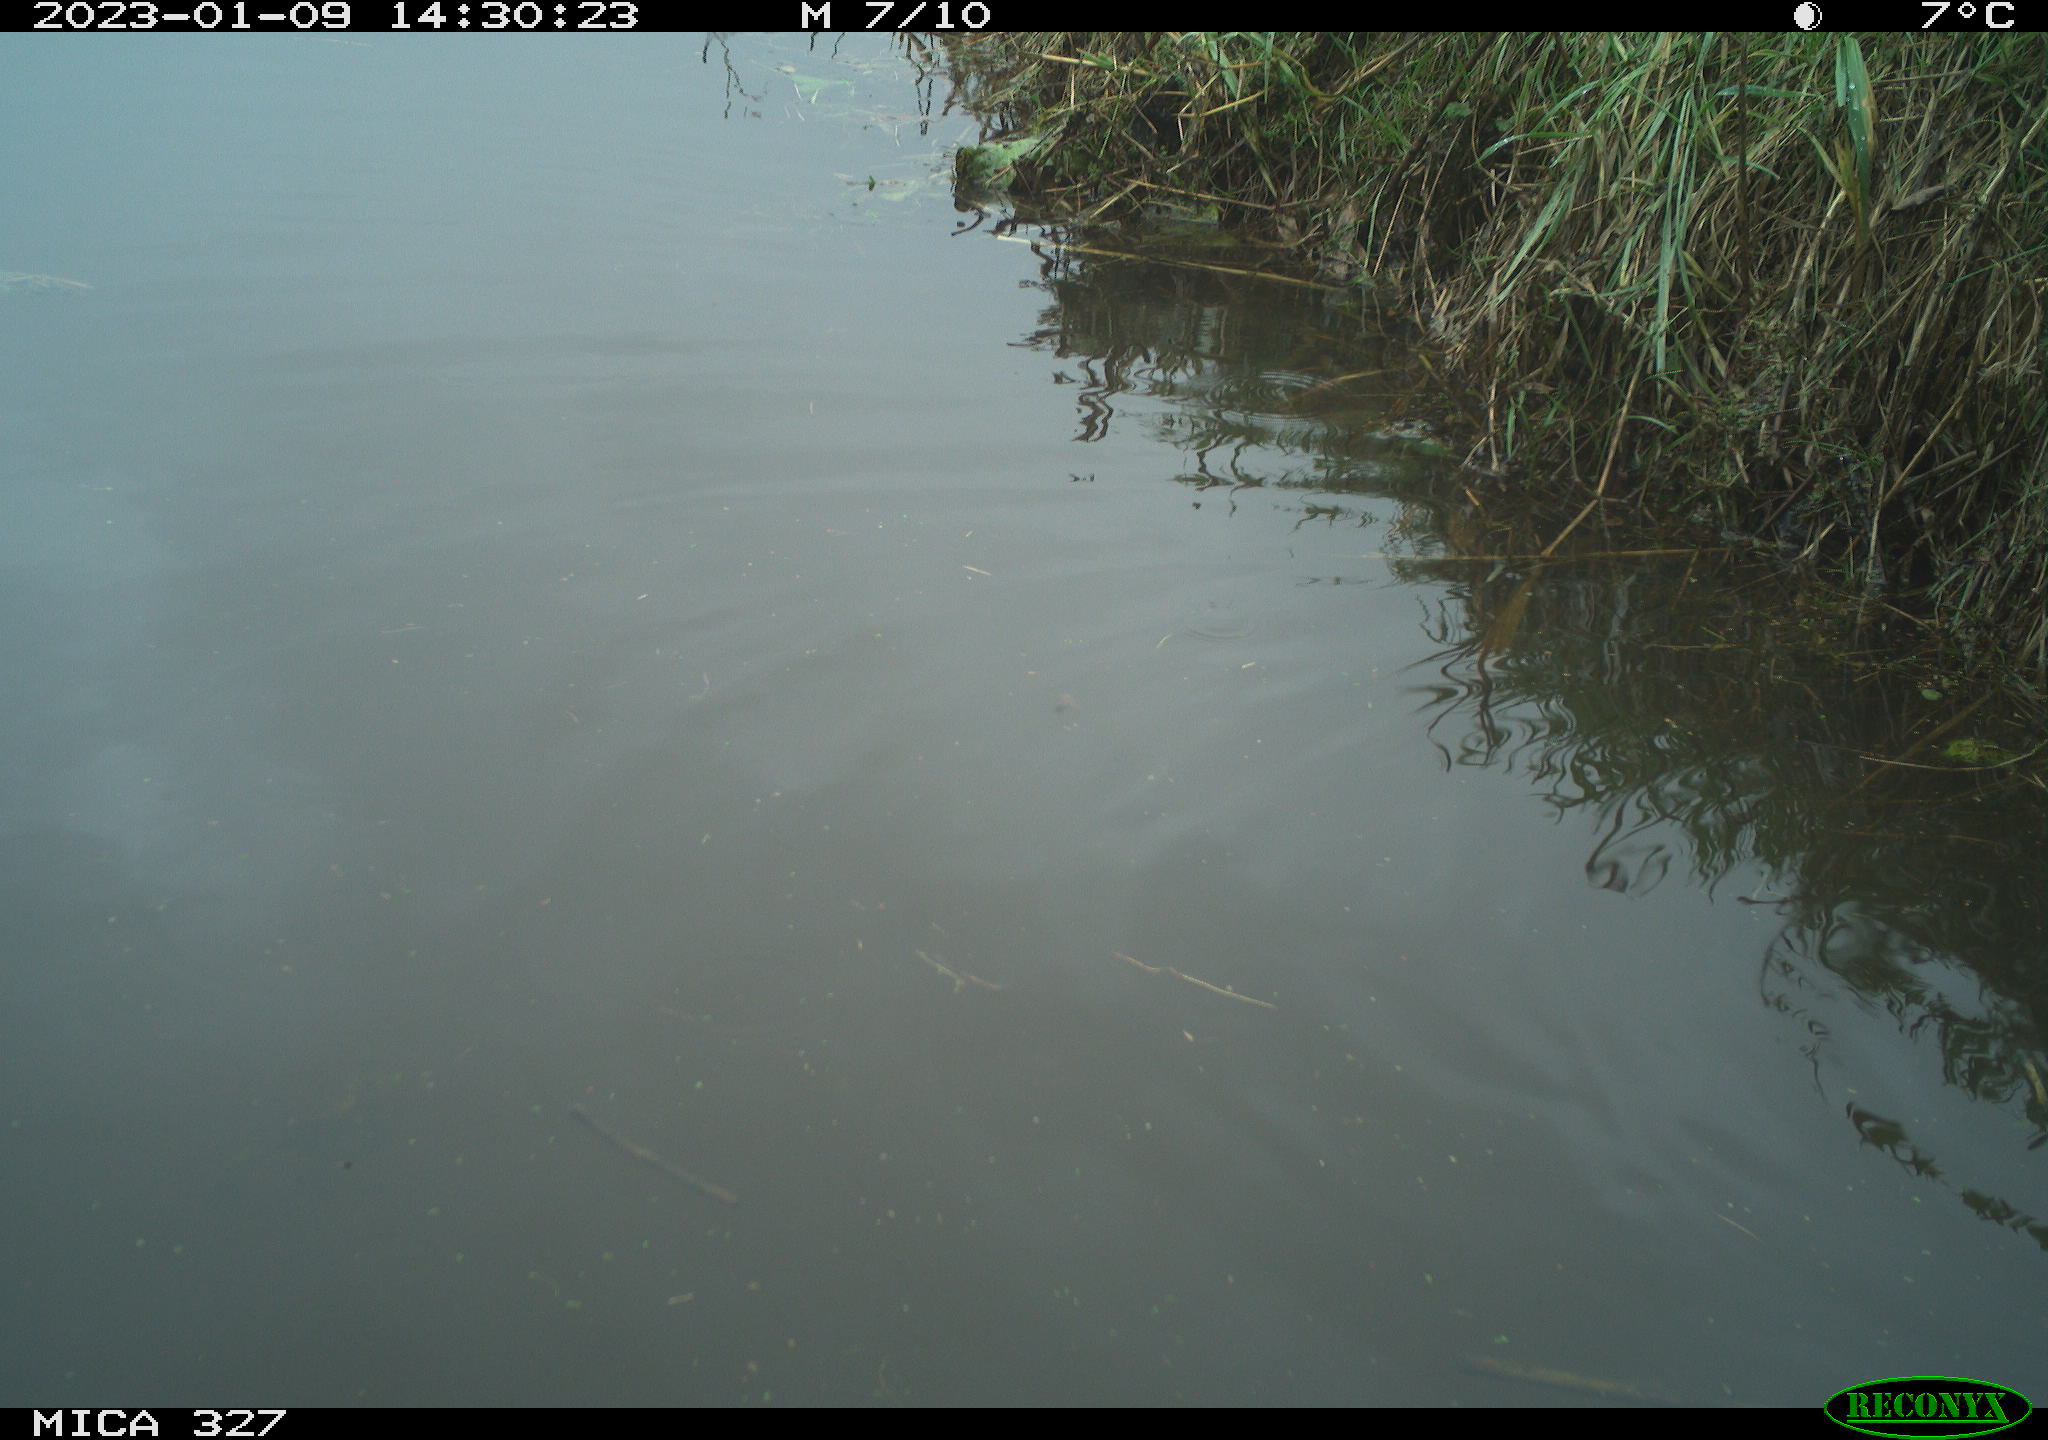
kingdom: Animalia
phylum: Chordata
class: Aves
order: Gruiformes
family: Rallidae
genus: Gallinula
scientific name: Gallinula chloropus
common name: Common moorhen
